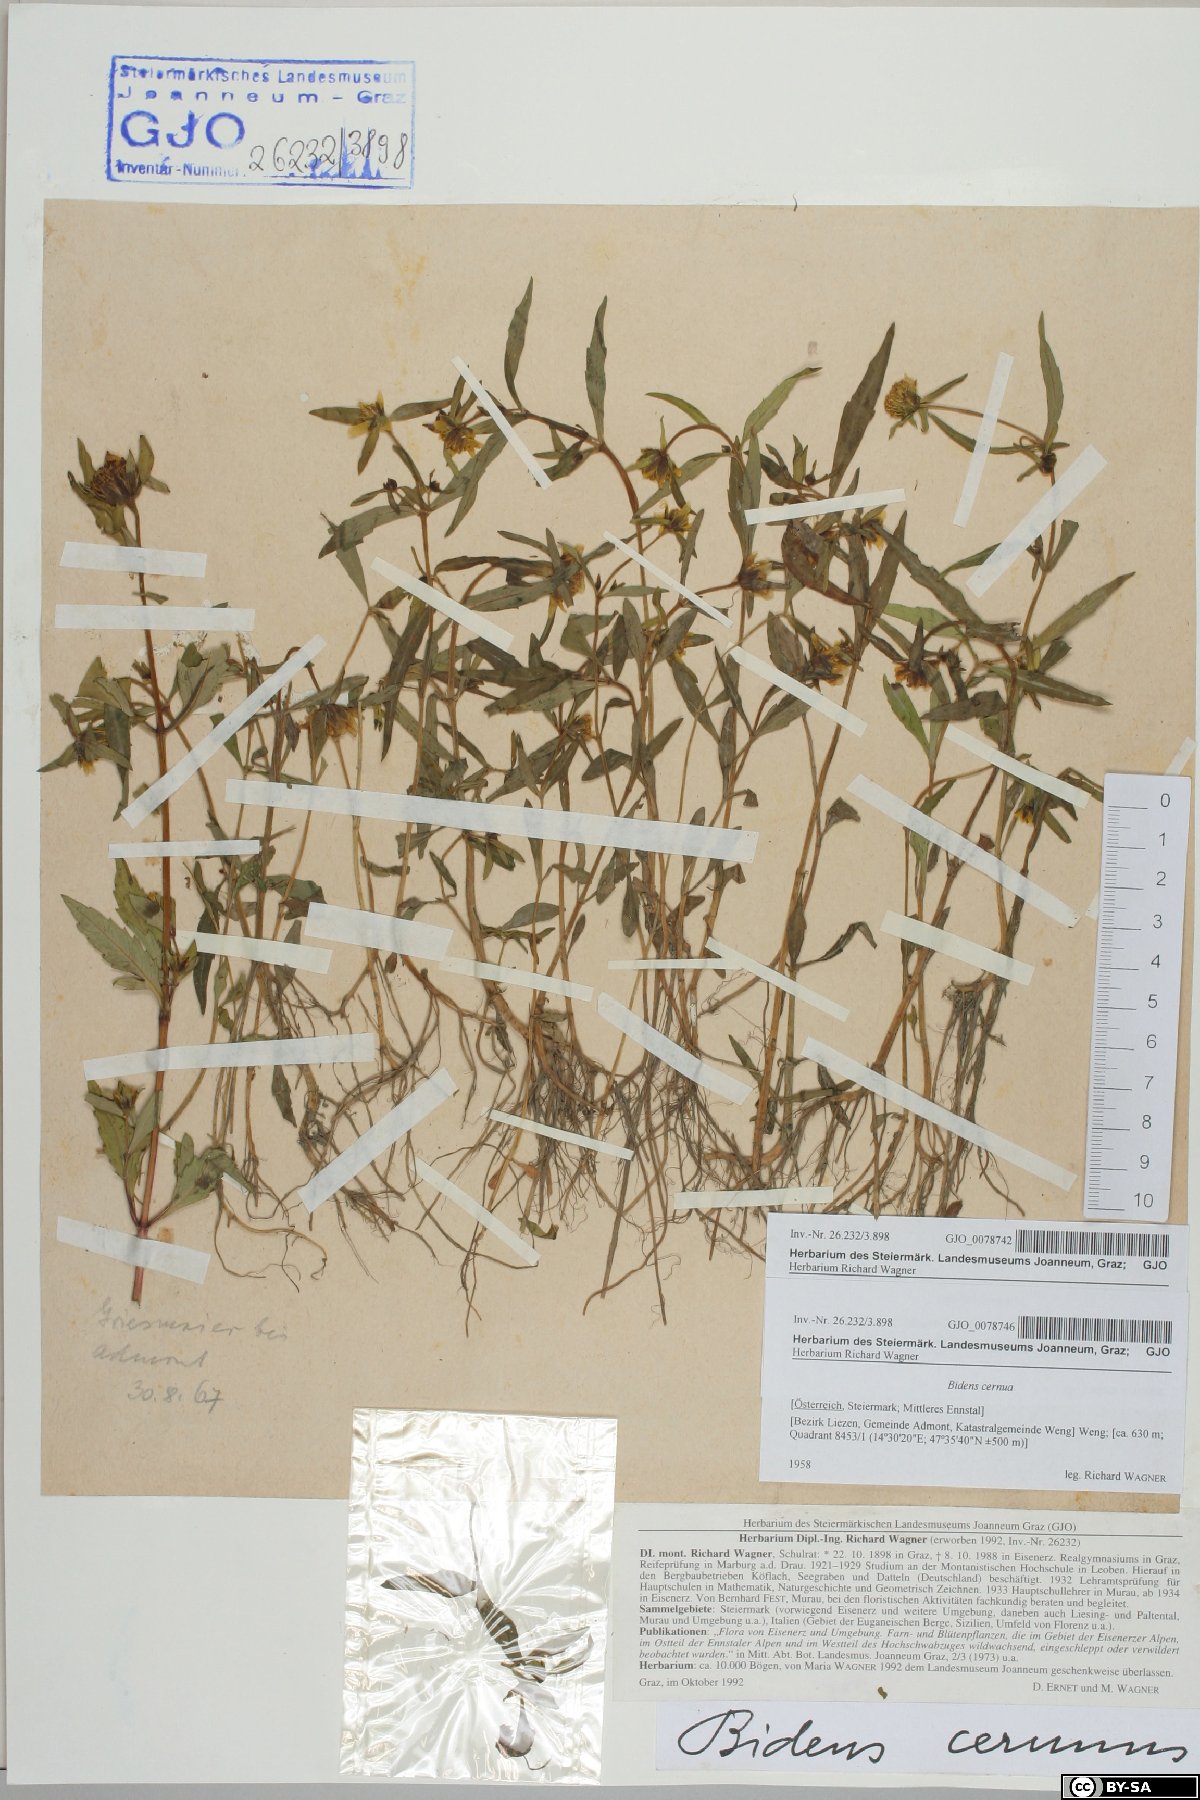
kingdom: Plantae
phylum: Tracheophyta
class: Magnoliopsida
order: Asterales
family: Asteraceae
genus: Bidens
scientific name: Bidens cernua
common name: Nodding bur-marigold
